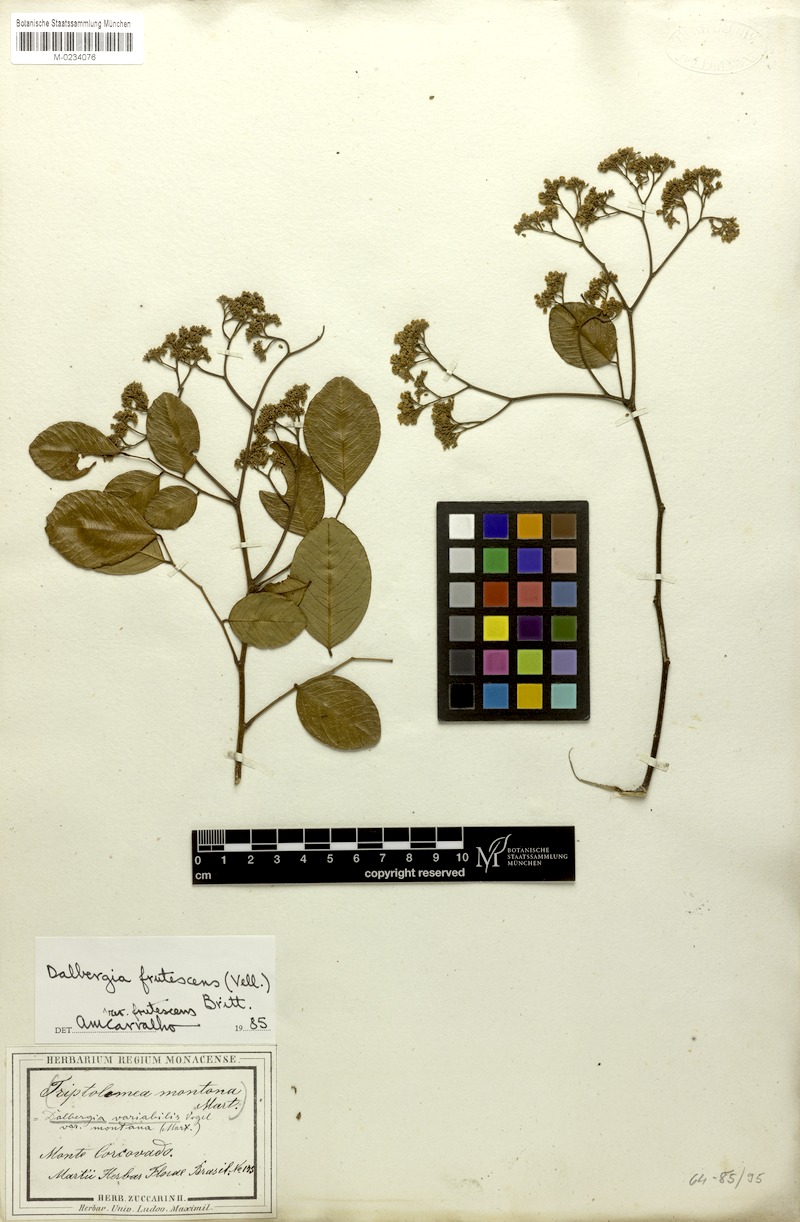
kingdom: Plantae
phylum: Tracheophyta
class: Magnoliopsida
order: Fabales
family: Fabaceae
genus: Dalbergia
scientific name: Dalbergia frutescens
